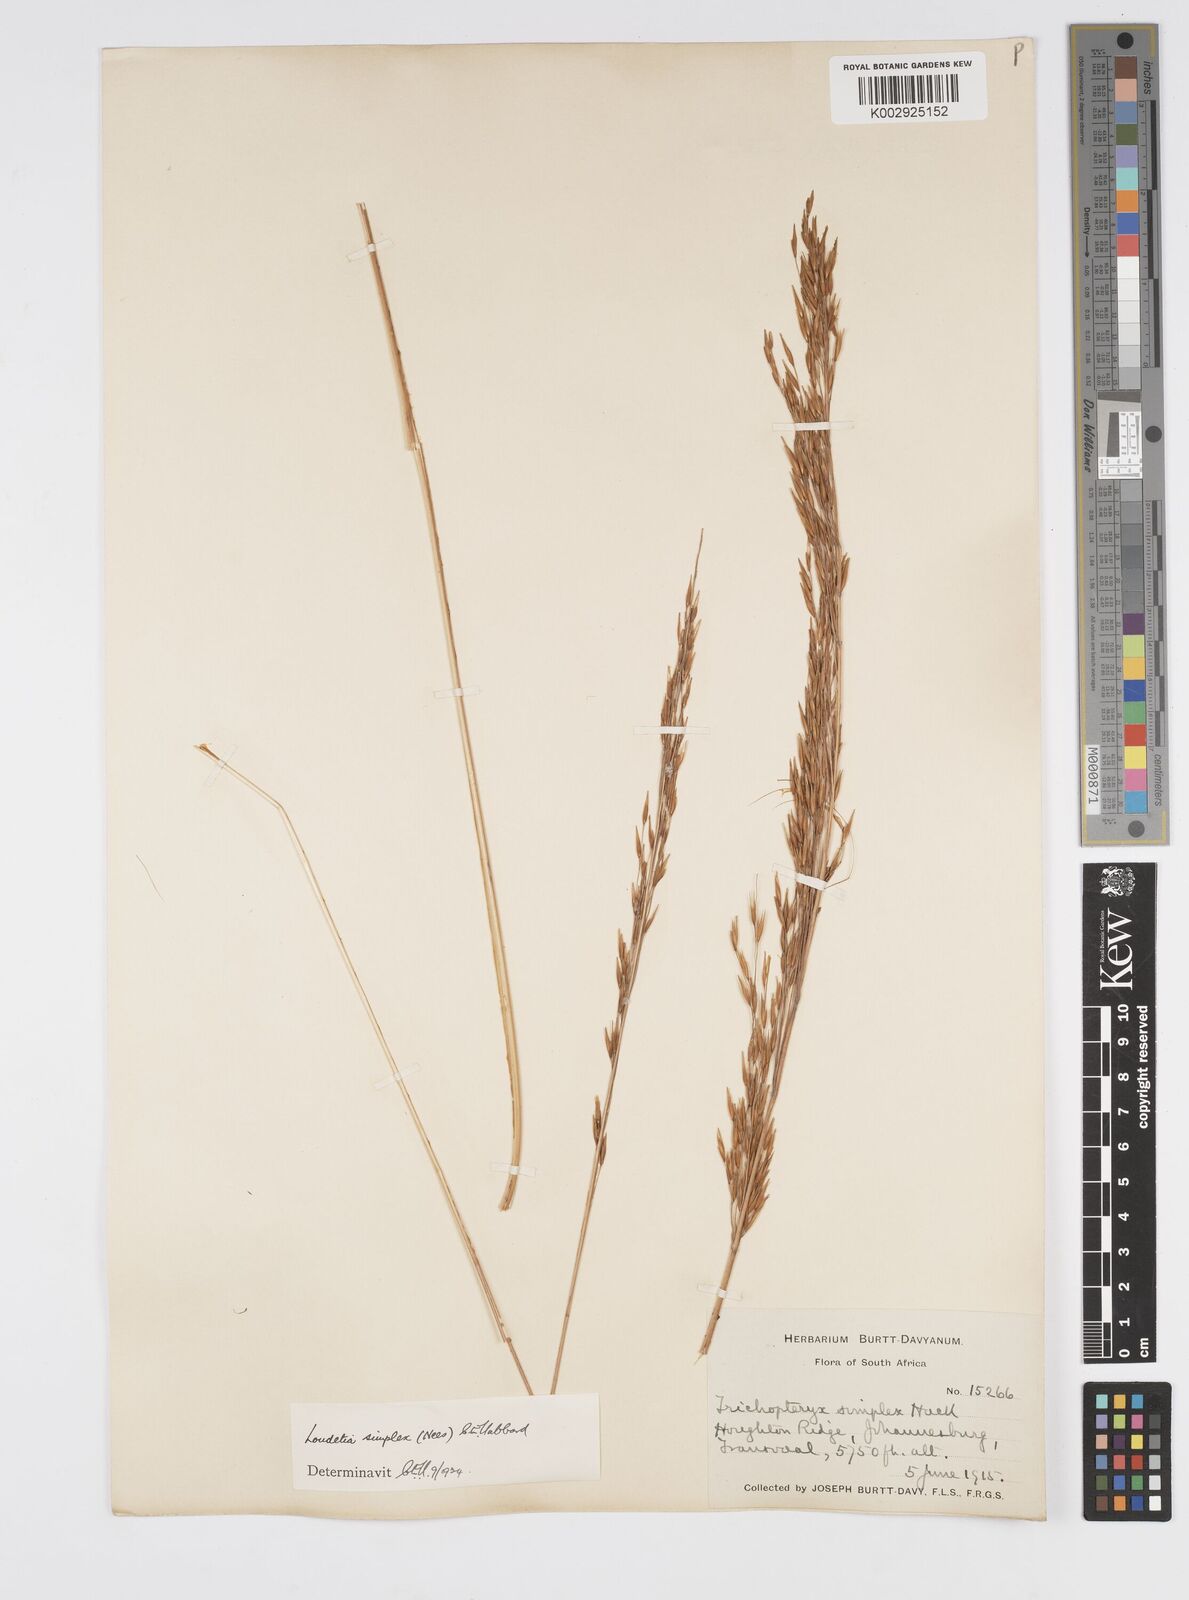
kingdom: Plantae
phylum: Tracheophyta
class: Liliopsida
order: Poales
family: Poaceae
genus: Loudetia
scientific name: Loudetia simplex
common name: Common russet grass
